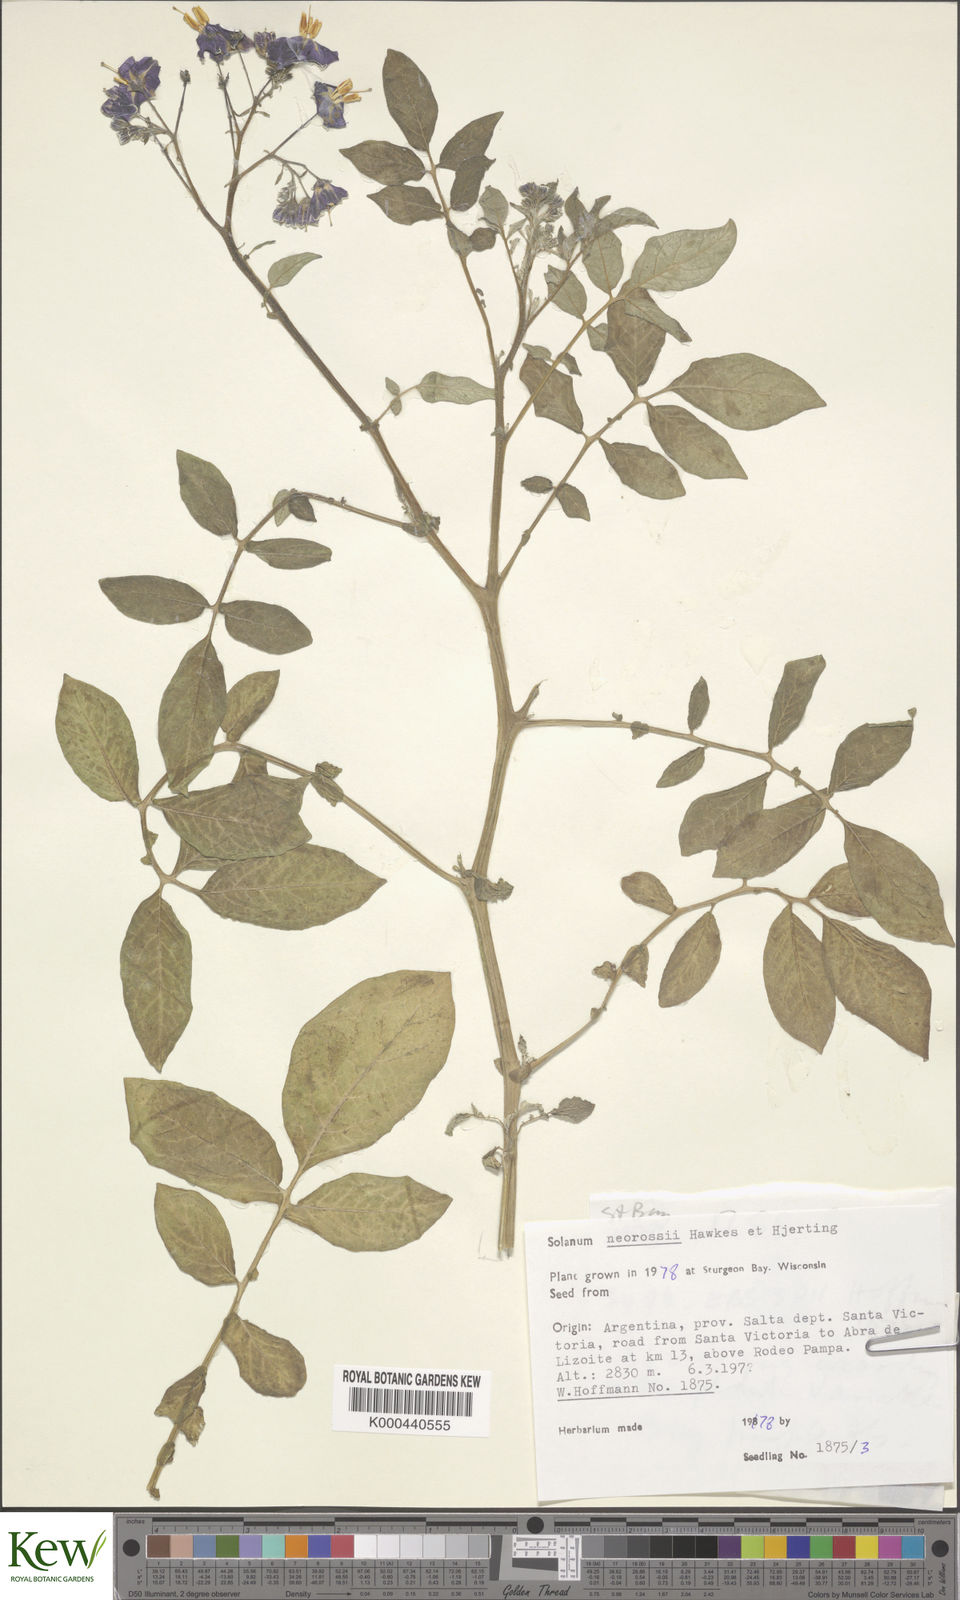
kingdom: Plantae
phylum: Tracheophyta
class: Magnoliopsida
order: Solanales
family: Solanaceae
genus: Solanum
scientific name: Solanum neorossii
